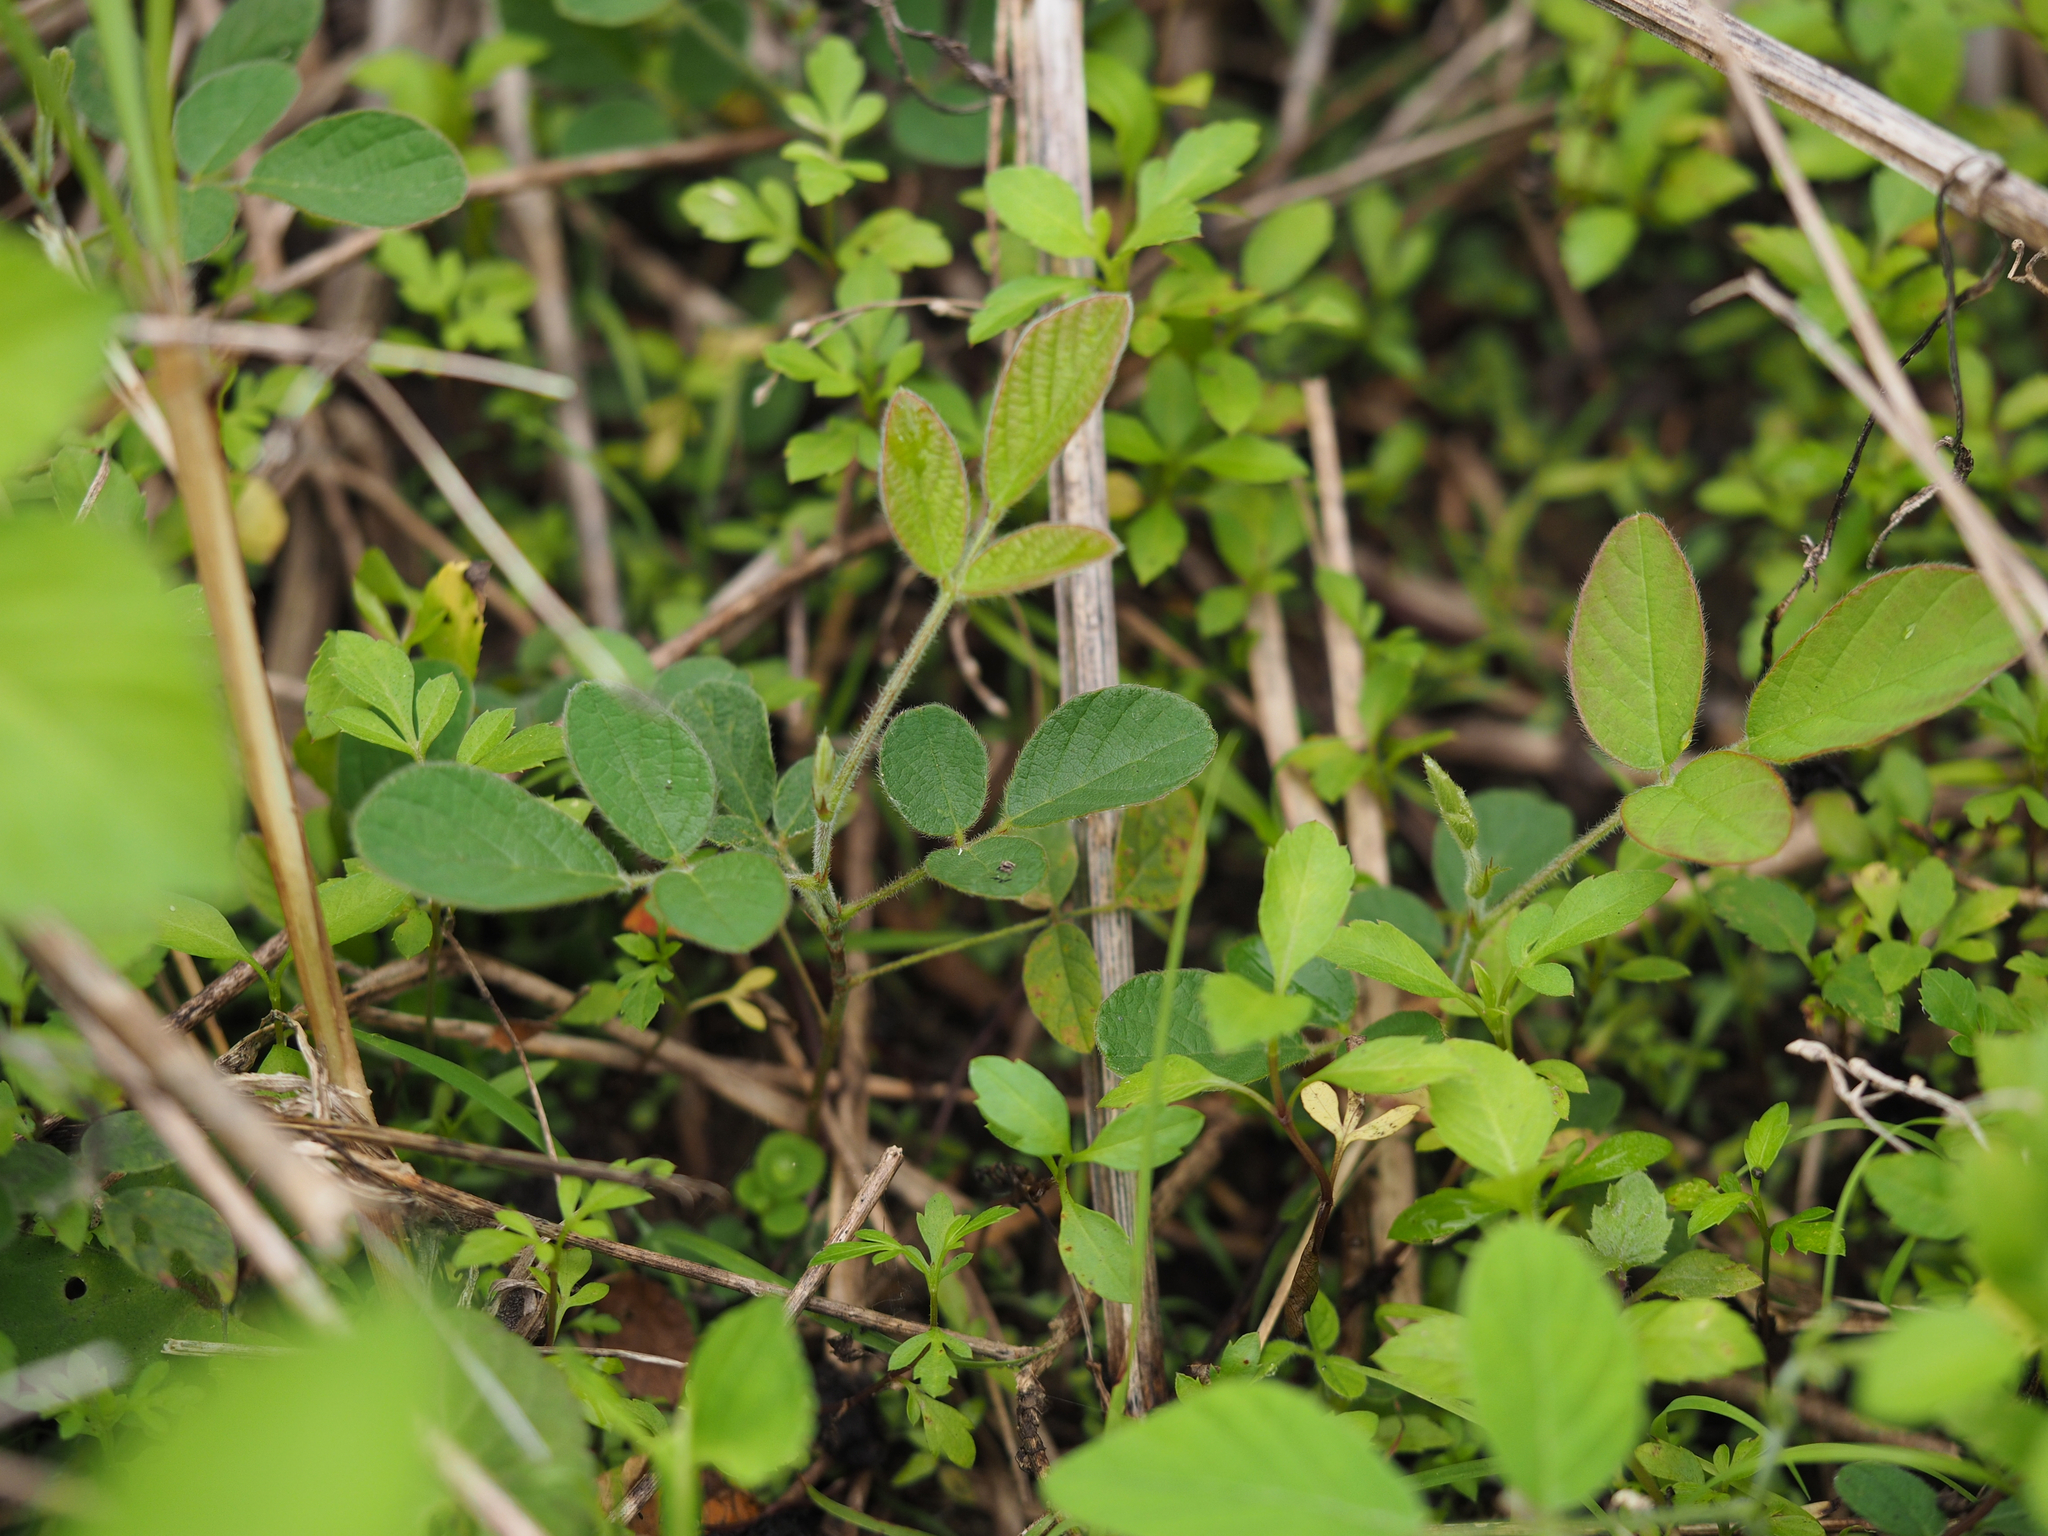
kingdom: Plantae
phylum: Tracheophyta
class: Magnoliopsida
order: Fabales
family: Fabaceae
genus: Phyllodium
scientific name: Phyllodium pulchellum
